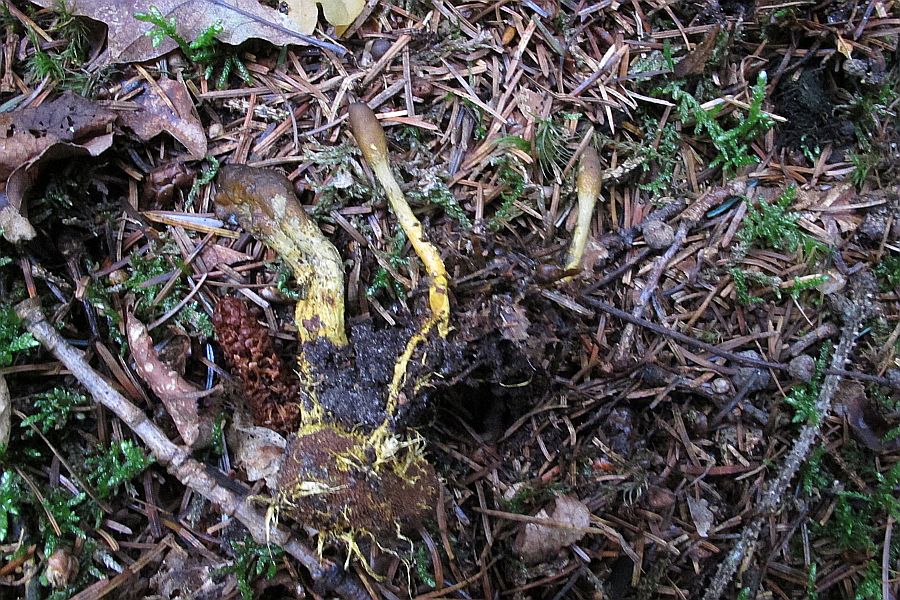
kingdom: Fungi
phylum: Ascomycota
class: Eurotiomycetes
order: Eurotiales
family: Elaphomycetaceae
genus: Elaphomyces
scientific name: Elaphomyces muricatus
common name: vortet hjortetrøffel
